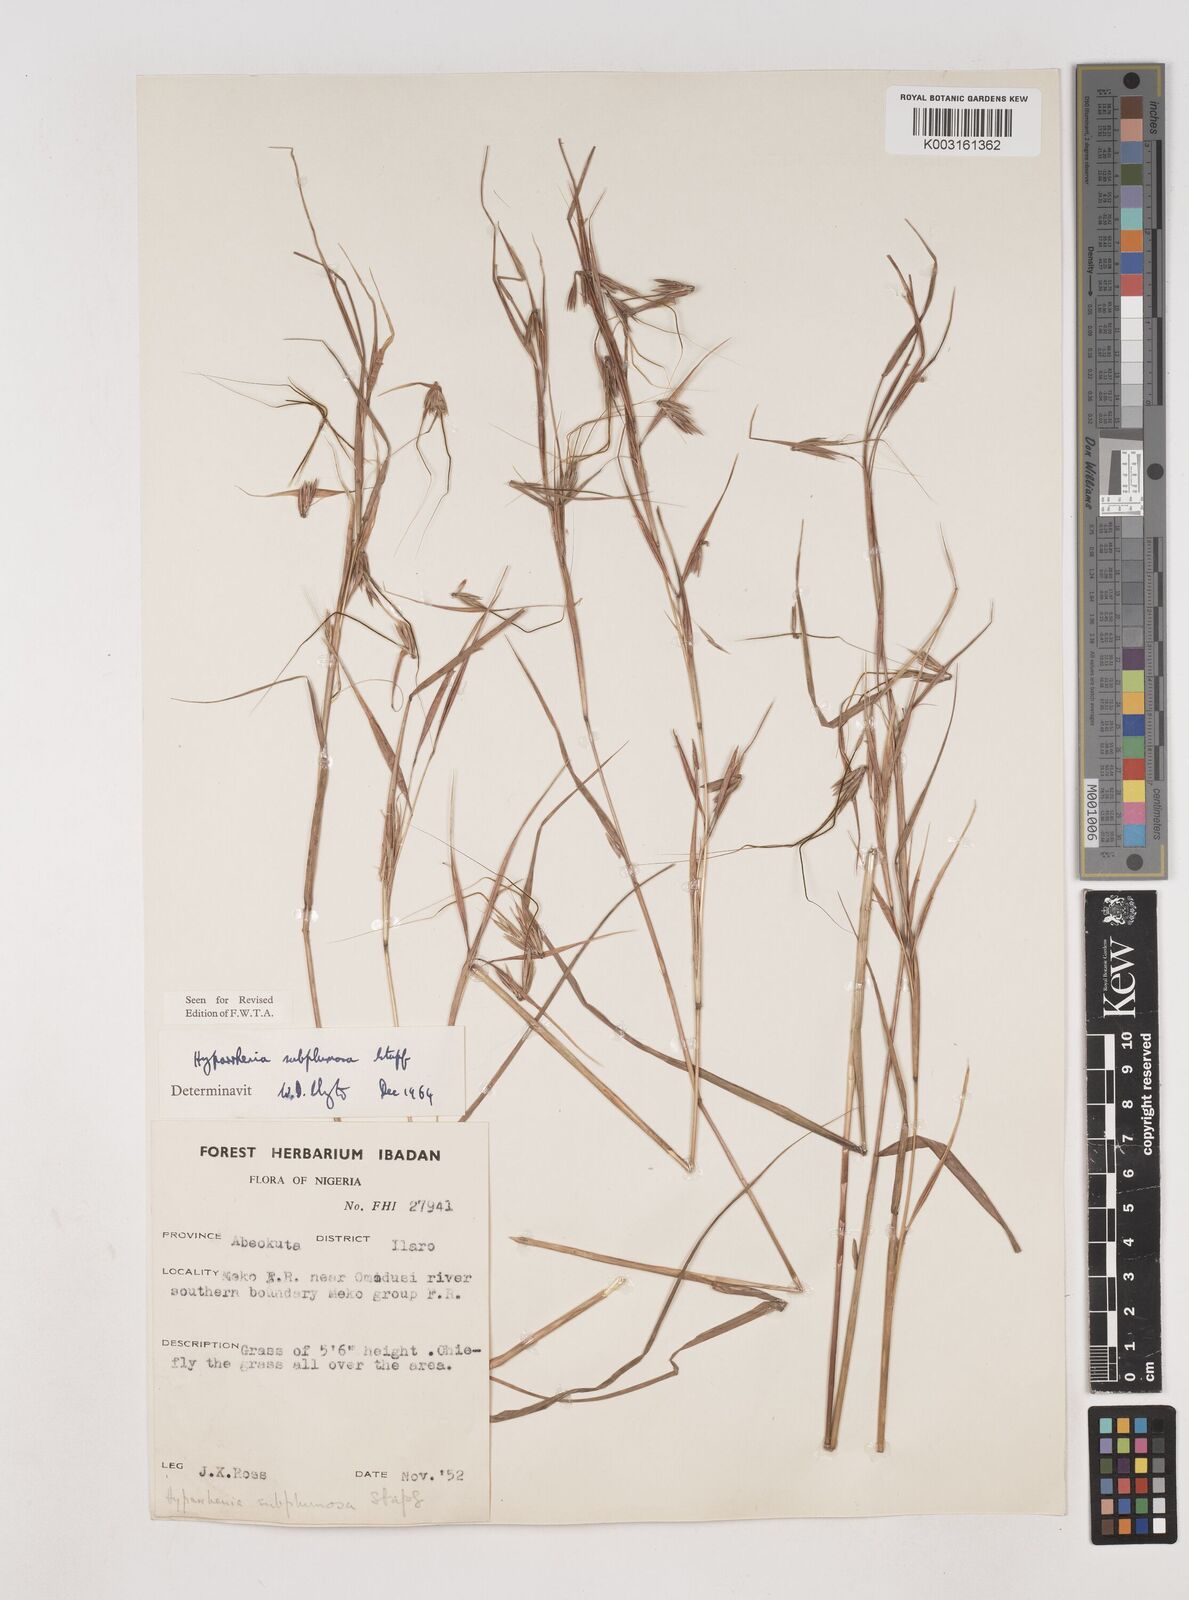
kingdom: Plantae
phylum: Tracheophyta
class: Liliopsida
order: Poales
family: Poaceae
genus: Hyparrhenia
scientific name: Hyparrhenia subplumosa
